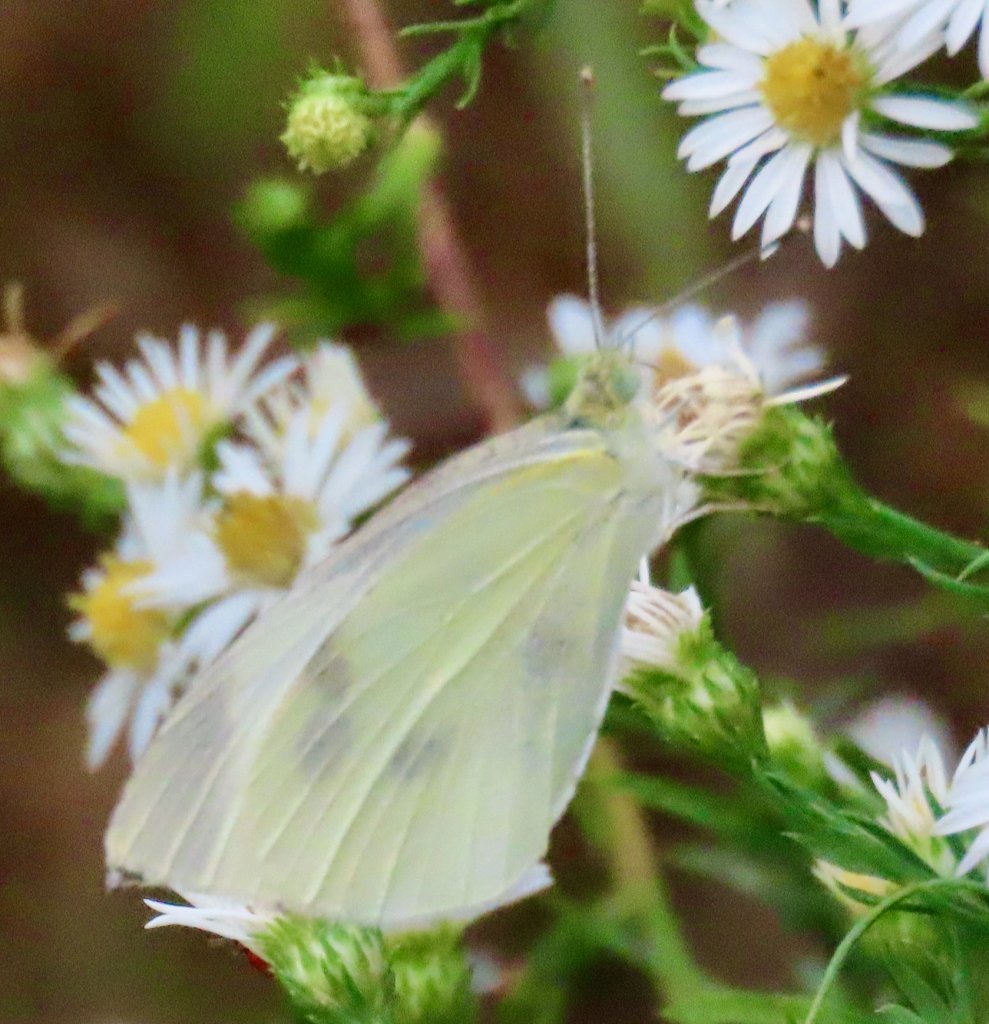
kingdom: Animalia
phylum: Arthropoda
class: Insecta
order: Lepidoptera
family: Pieridae
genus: Pieris
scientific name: Pieris rapae
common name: Cabbage White
